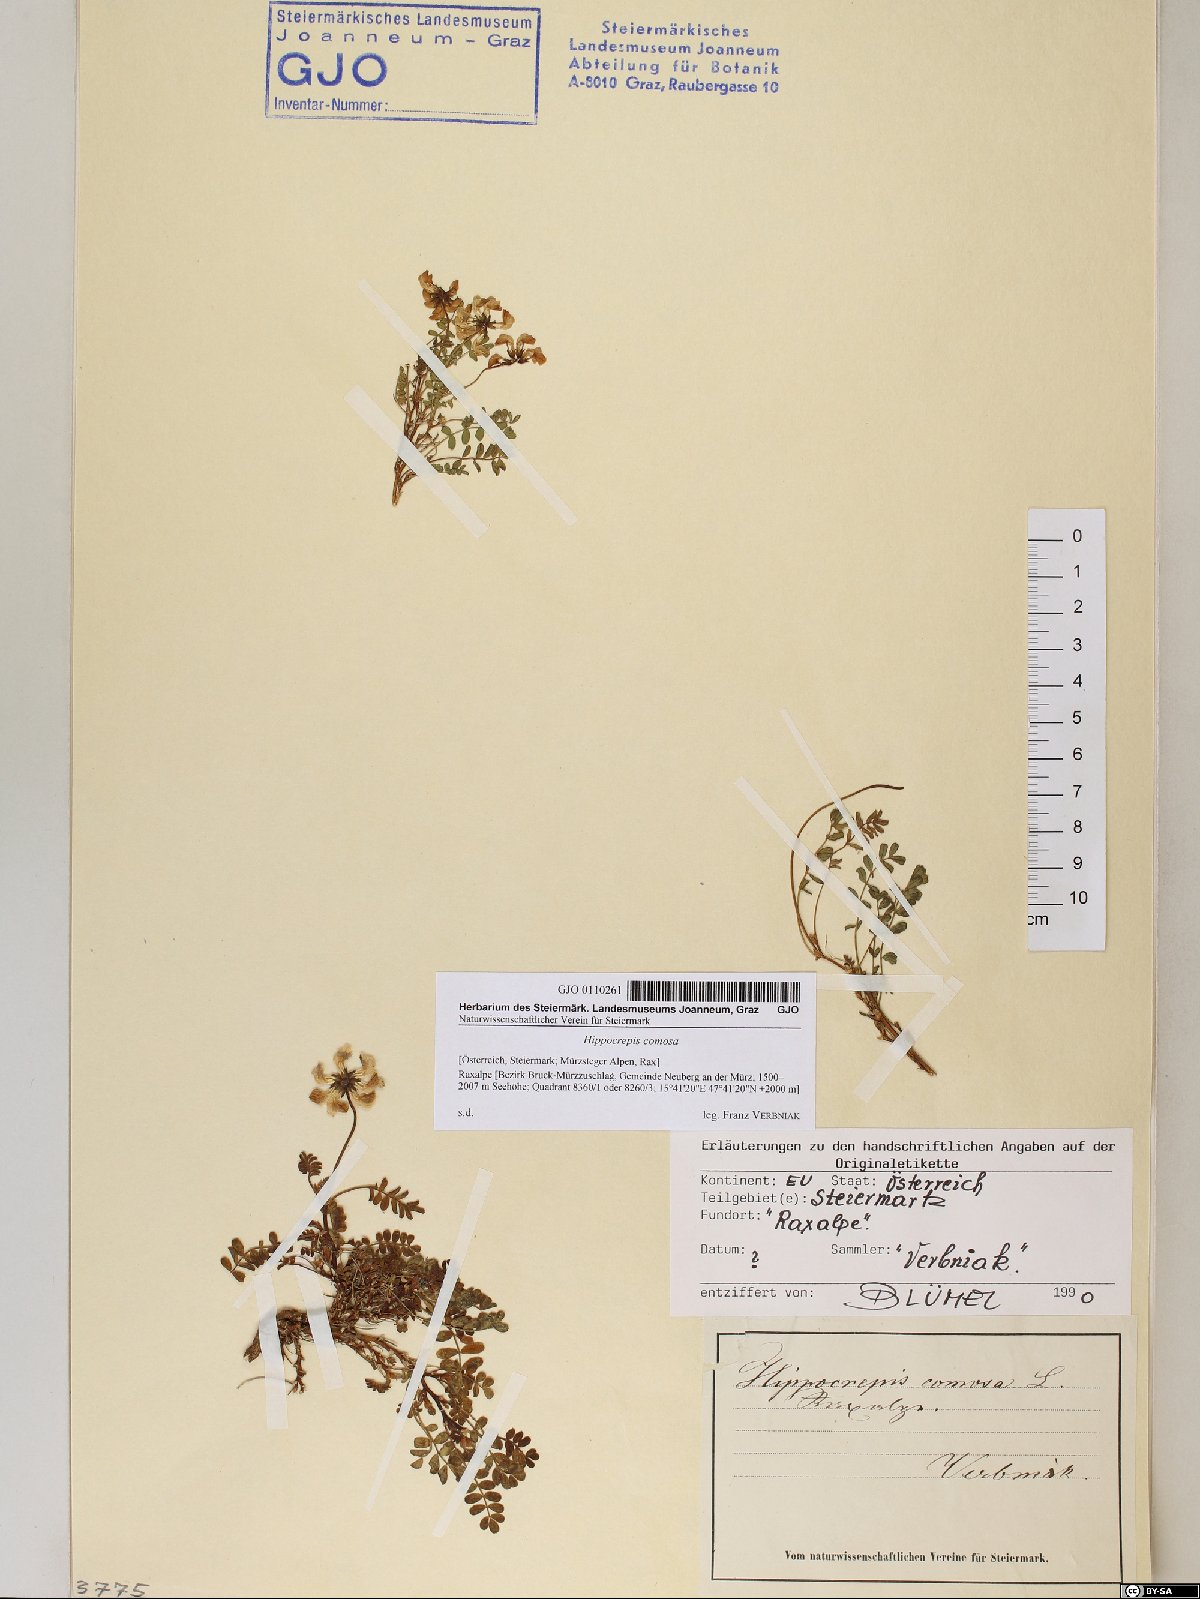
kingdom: Plantae
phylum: Tracheophyta
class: Magnoliopsida
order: Fabales
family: Fabaceae
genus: Hippocrepis
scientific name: Hippocrepis comosa
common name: Horseshoe vetch
